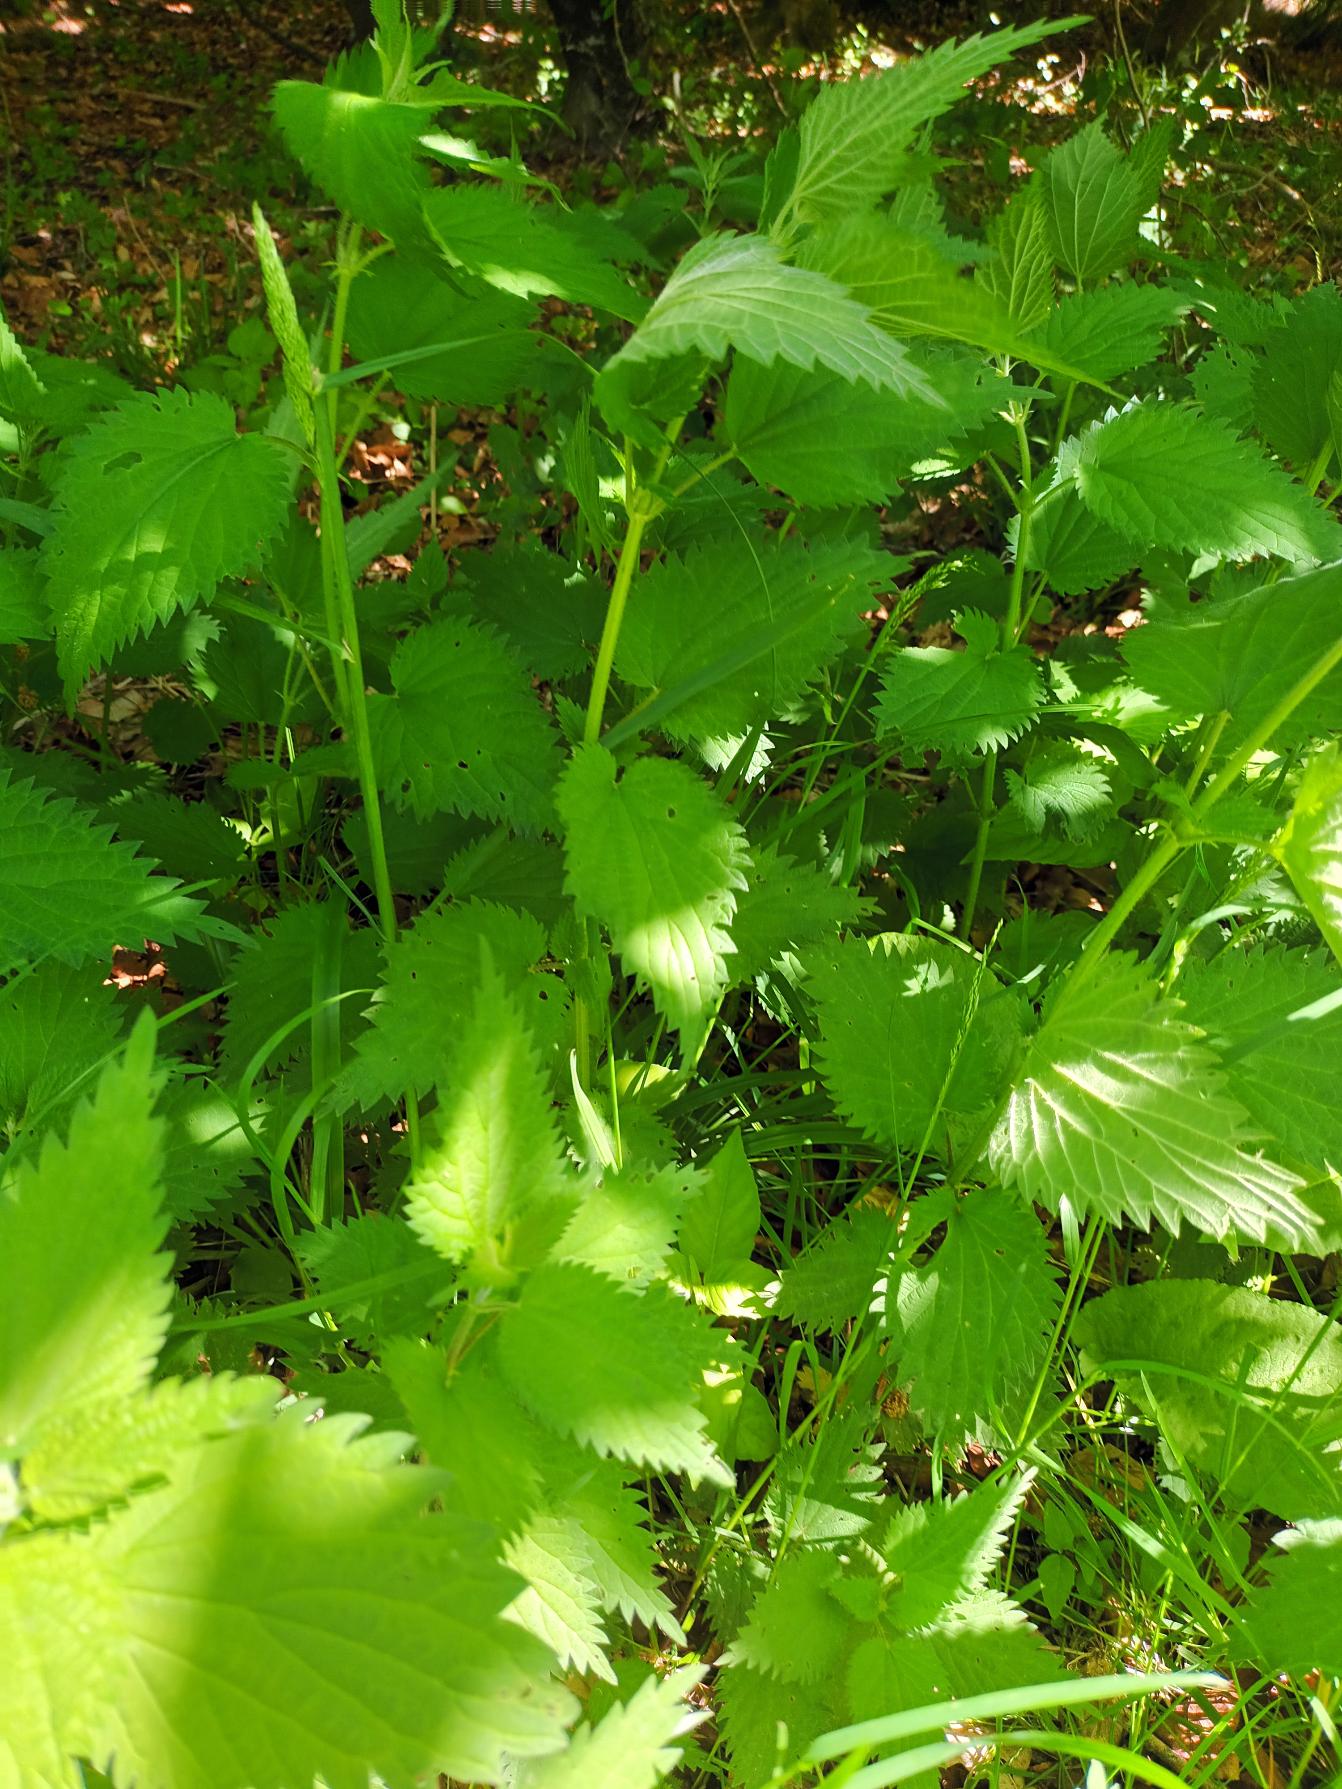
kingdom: Plantae
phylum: Tracheophyta
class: Magnoliopsida
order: Rosales
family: Urticaceae
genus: Urtica
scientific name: Urtica dioica
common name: Stor nælde
